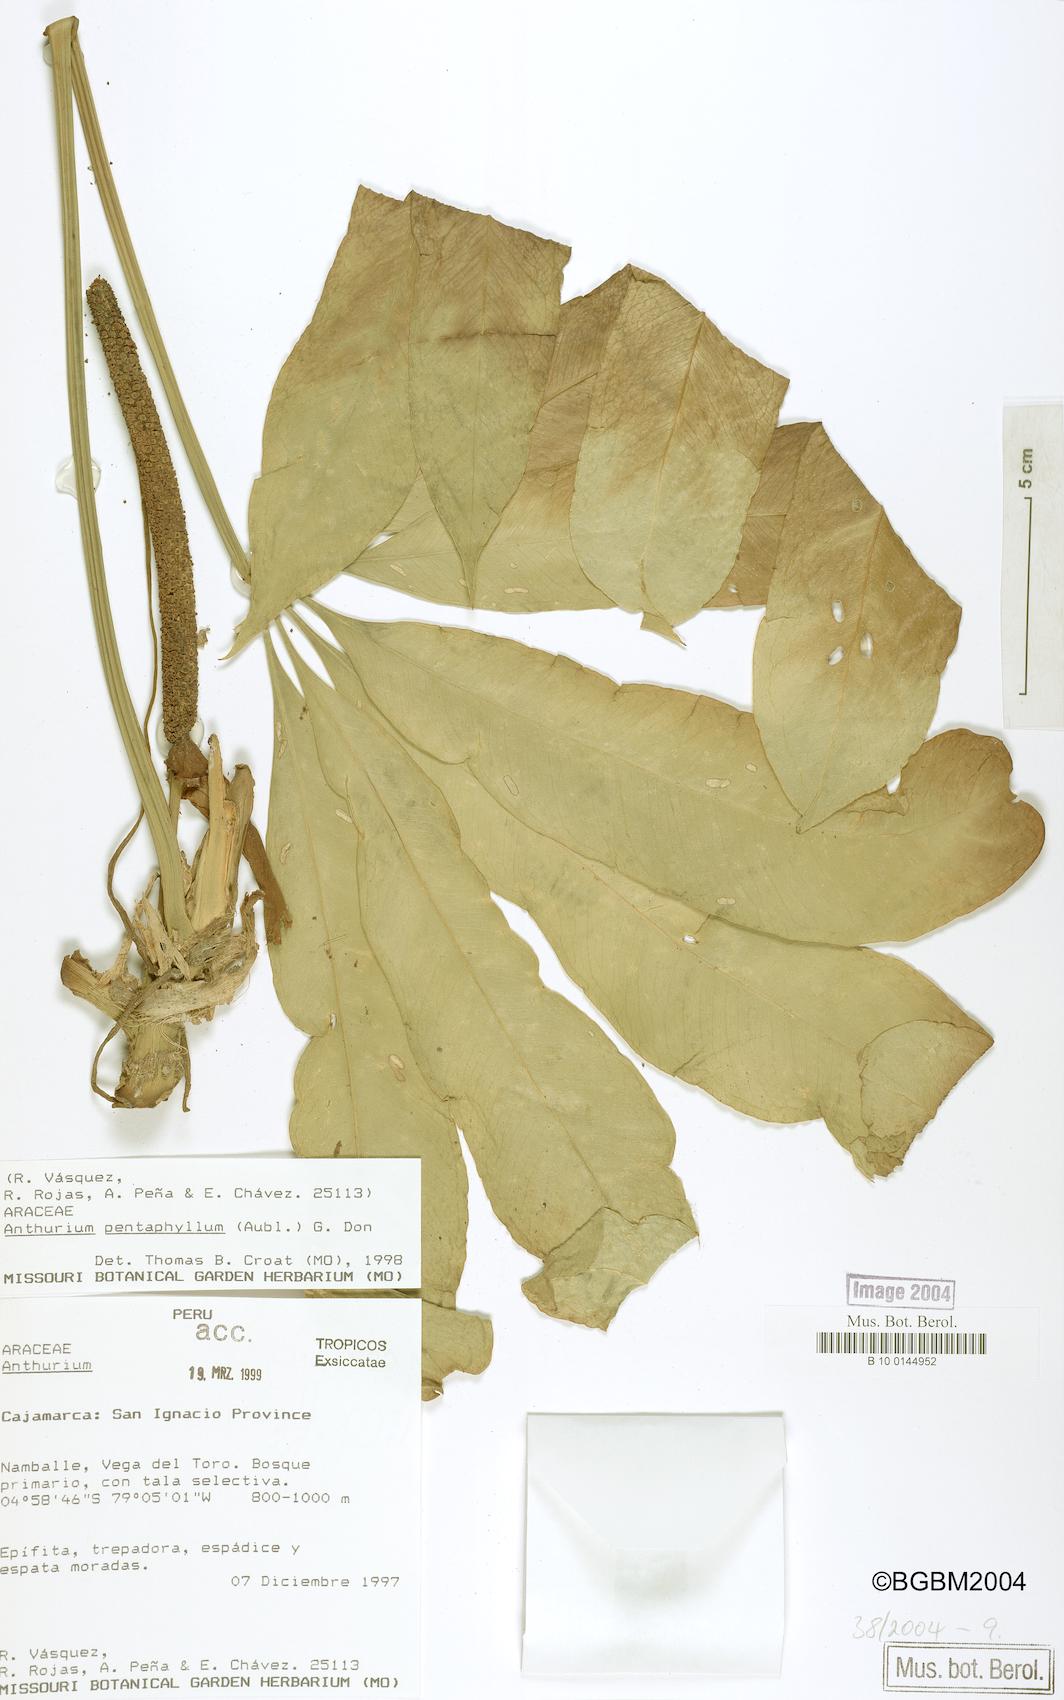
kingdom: Plantae
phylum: Tracheophyta
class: Liliopsida
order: Alismatales
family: Araceae
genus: Anthurium
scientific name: Anthurium pentaphyllum
